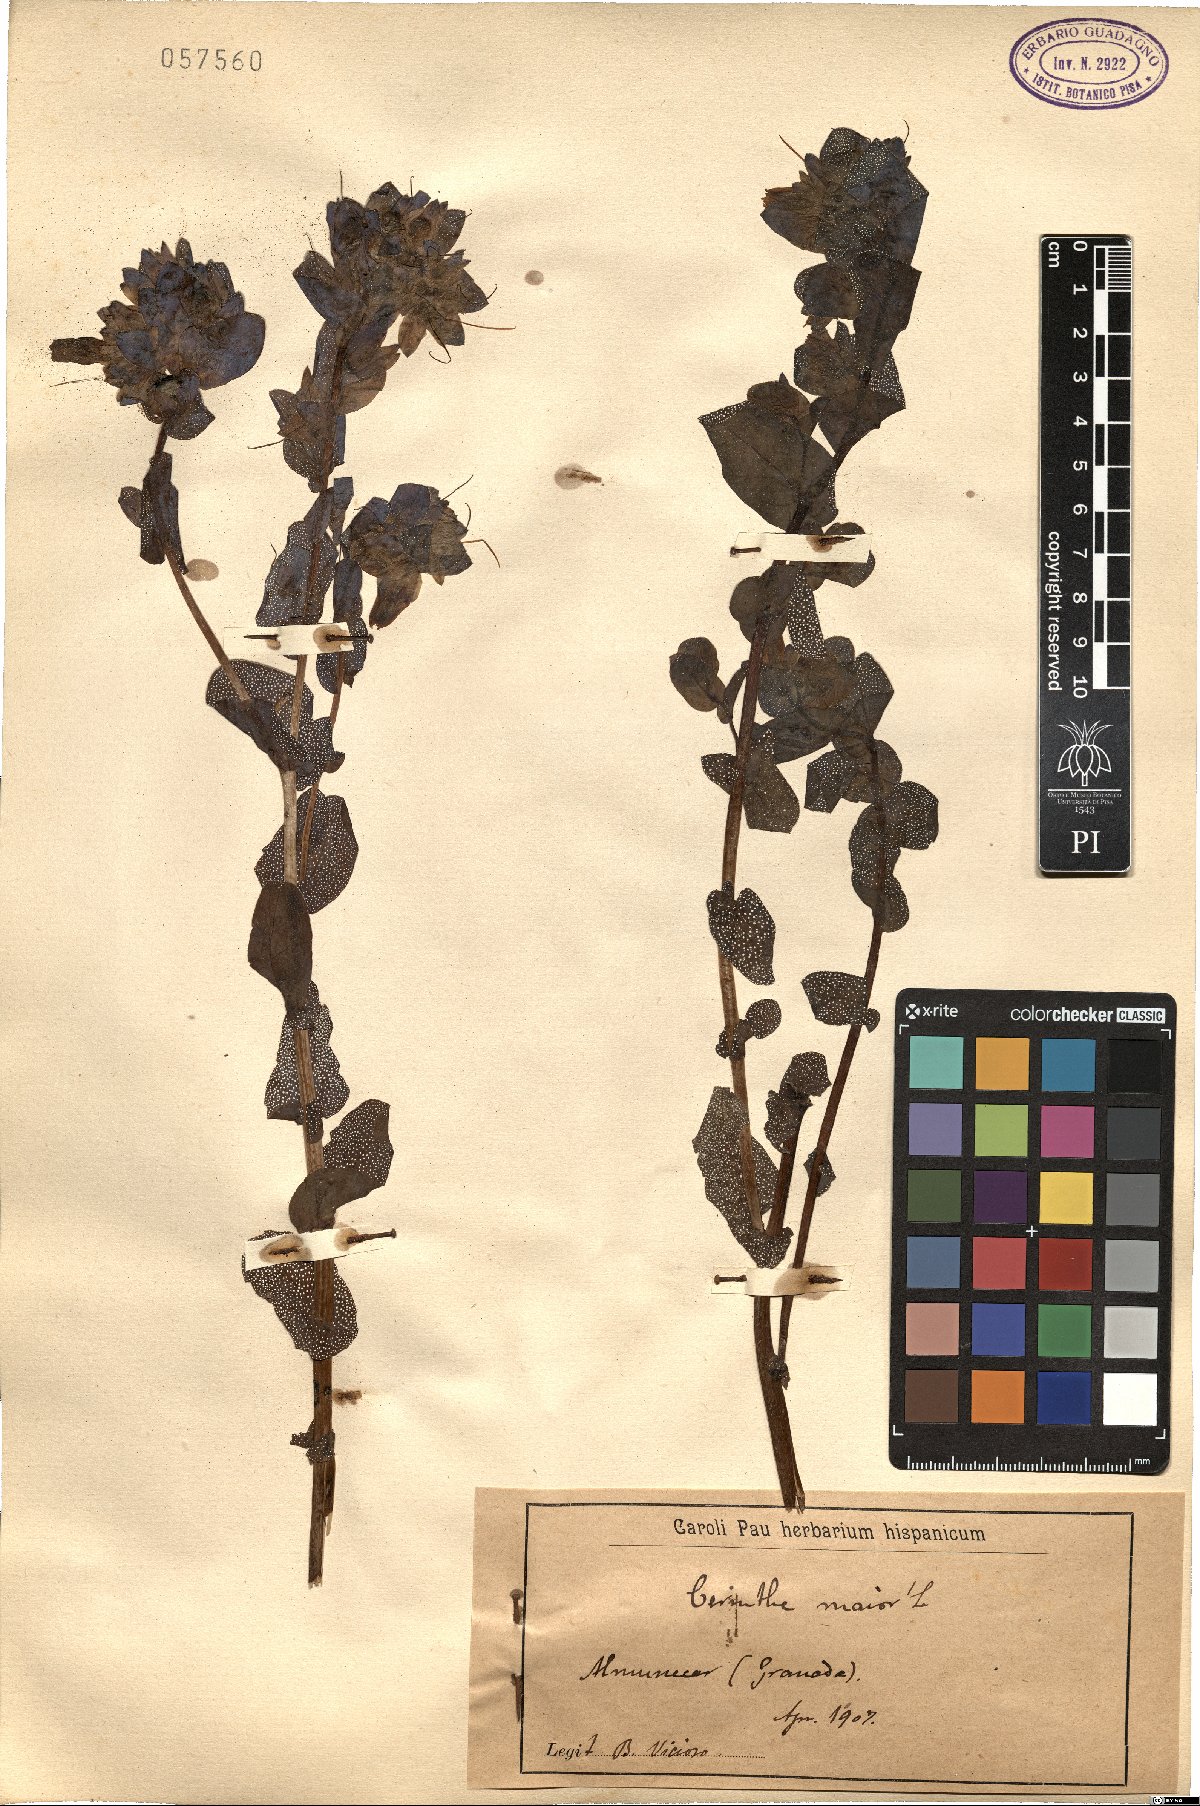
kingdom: Plantae
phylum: Tracheophyta
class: Magnoliopsida
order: Boraginales
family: Boraginaceae
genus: Cerinthe
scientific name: Cerinthe major
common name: Greater honeywort
